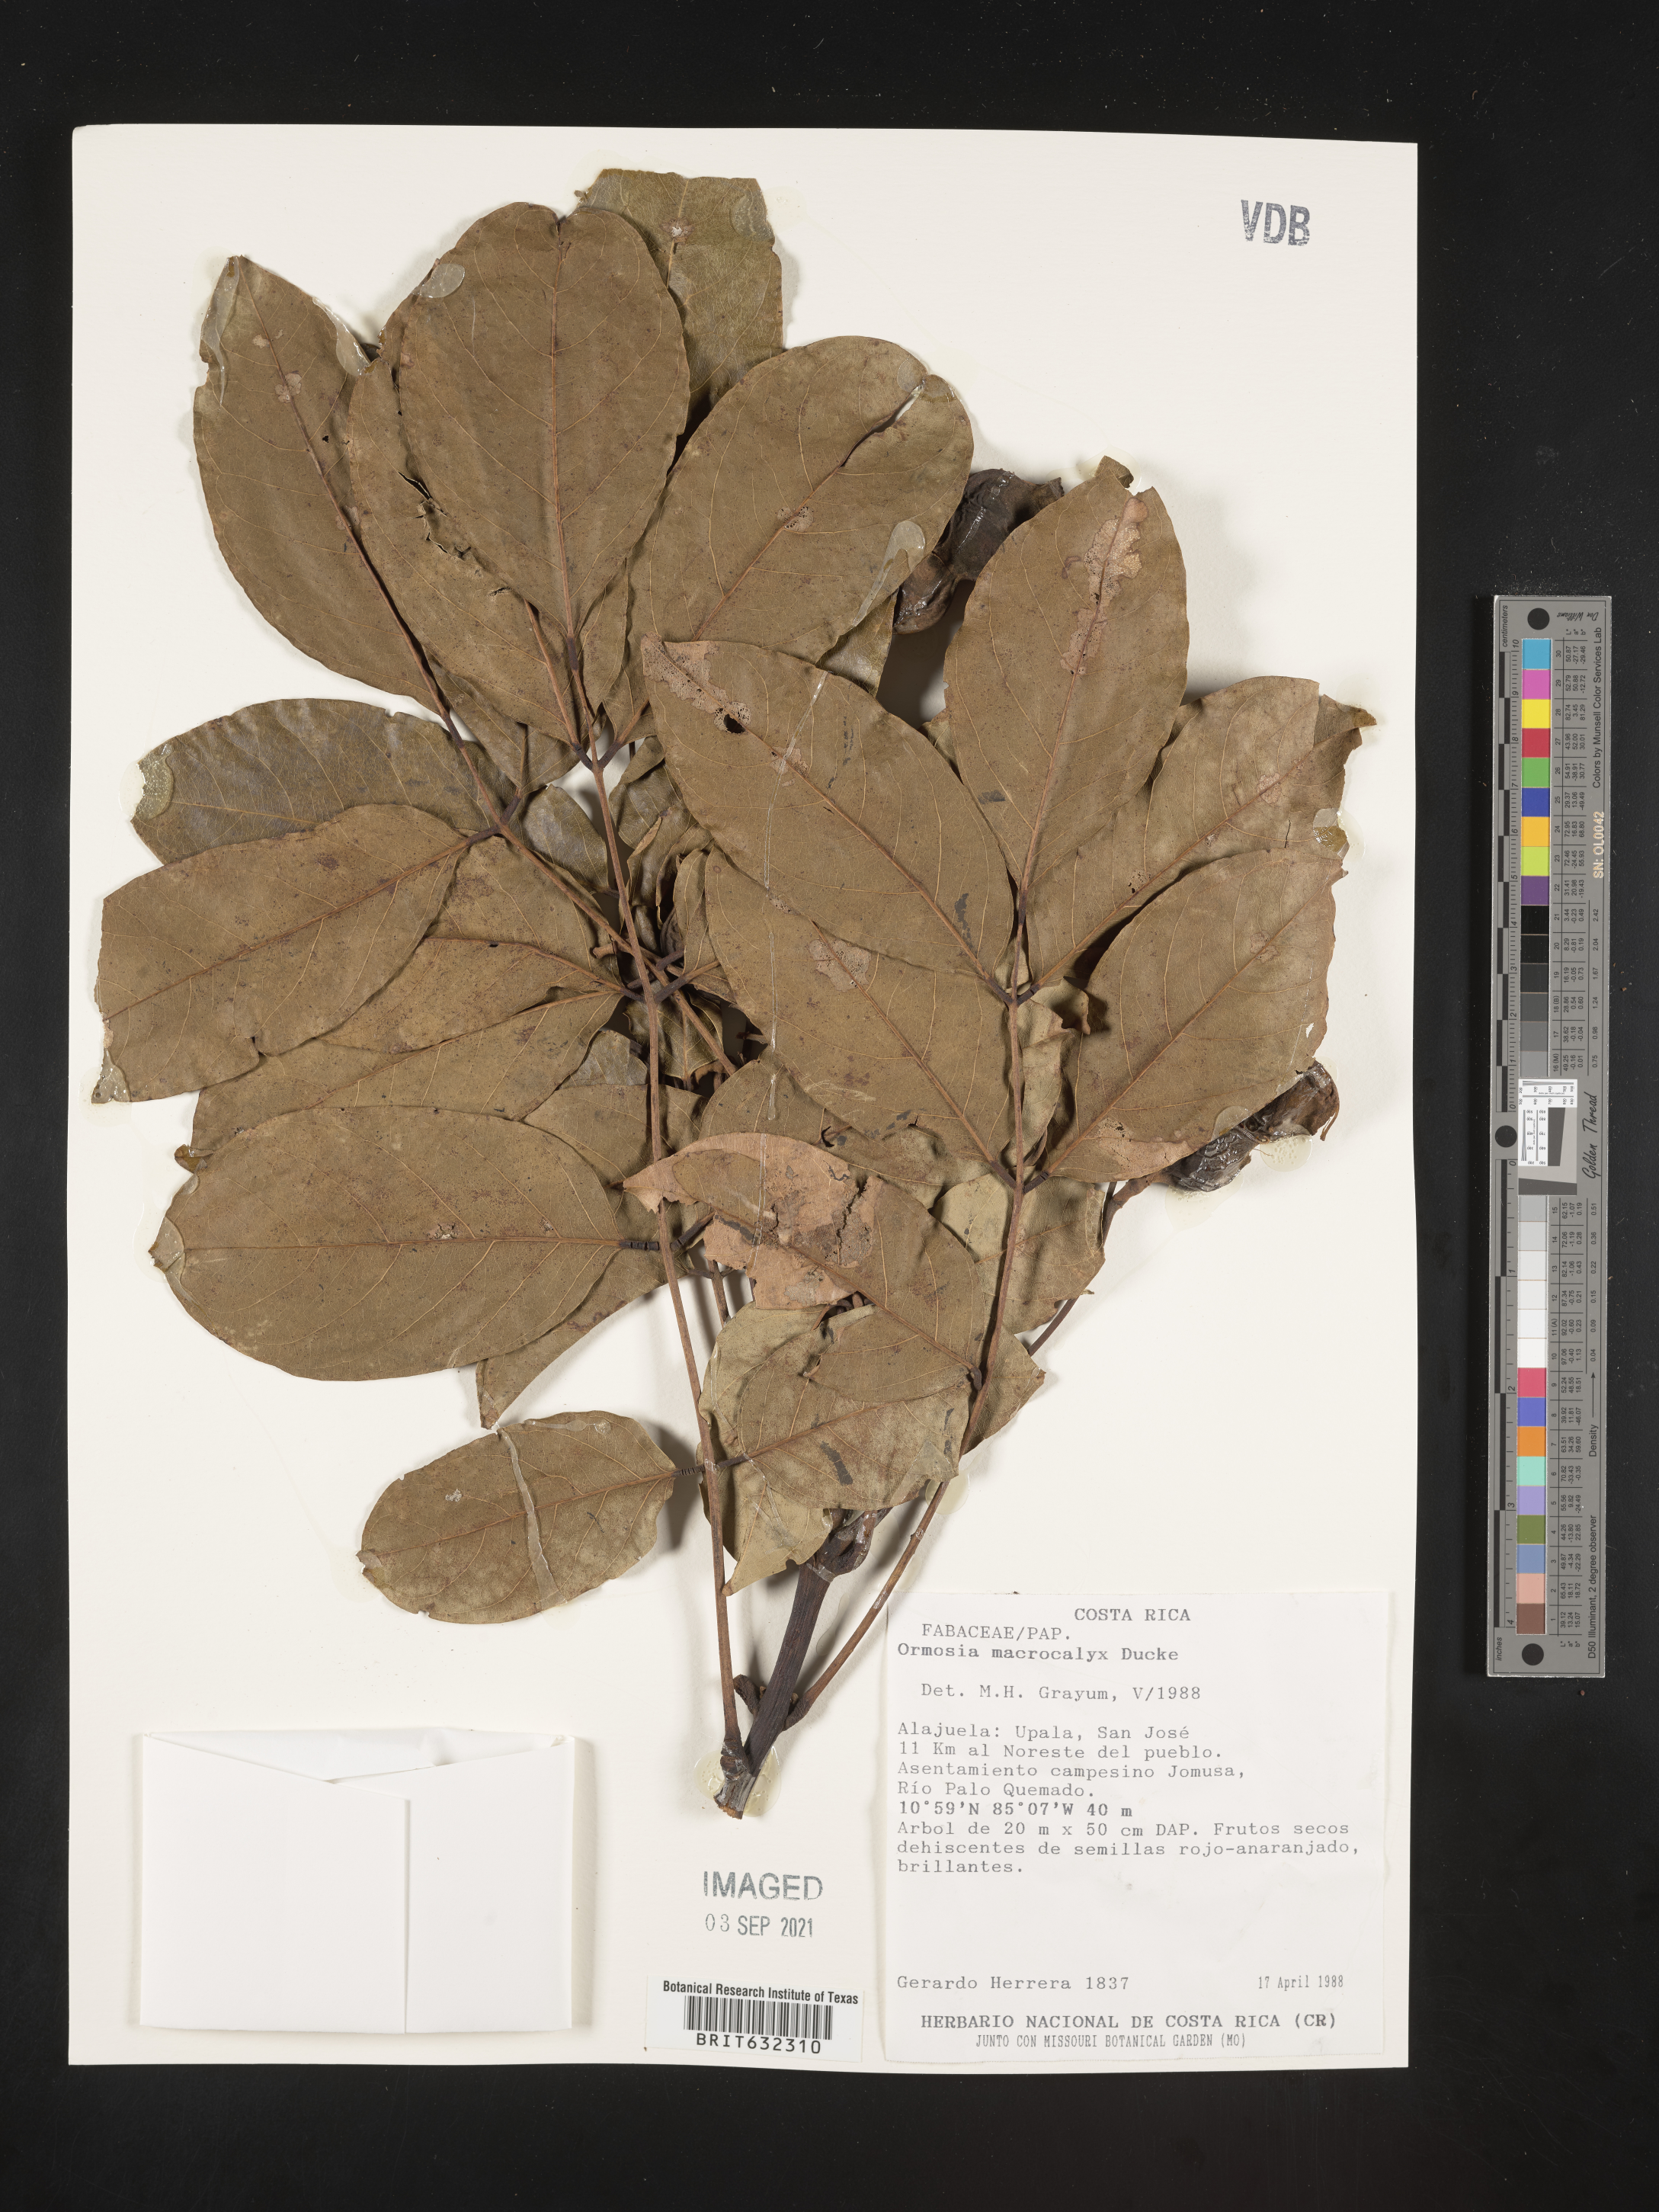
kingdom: Plantae
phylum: Tracheophyta
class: Magnoliopsida
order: Fabales
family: Fabaceae
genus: Ormosia
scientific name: Ormosia
